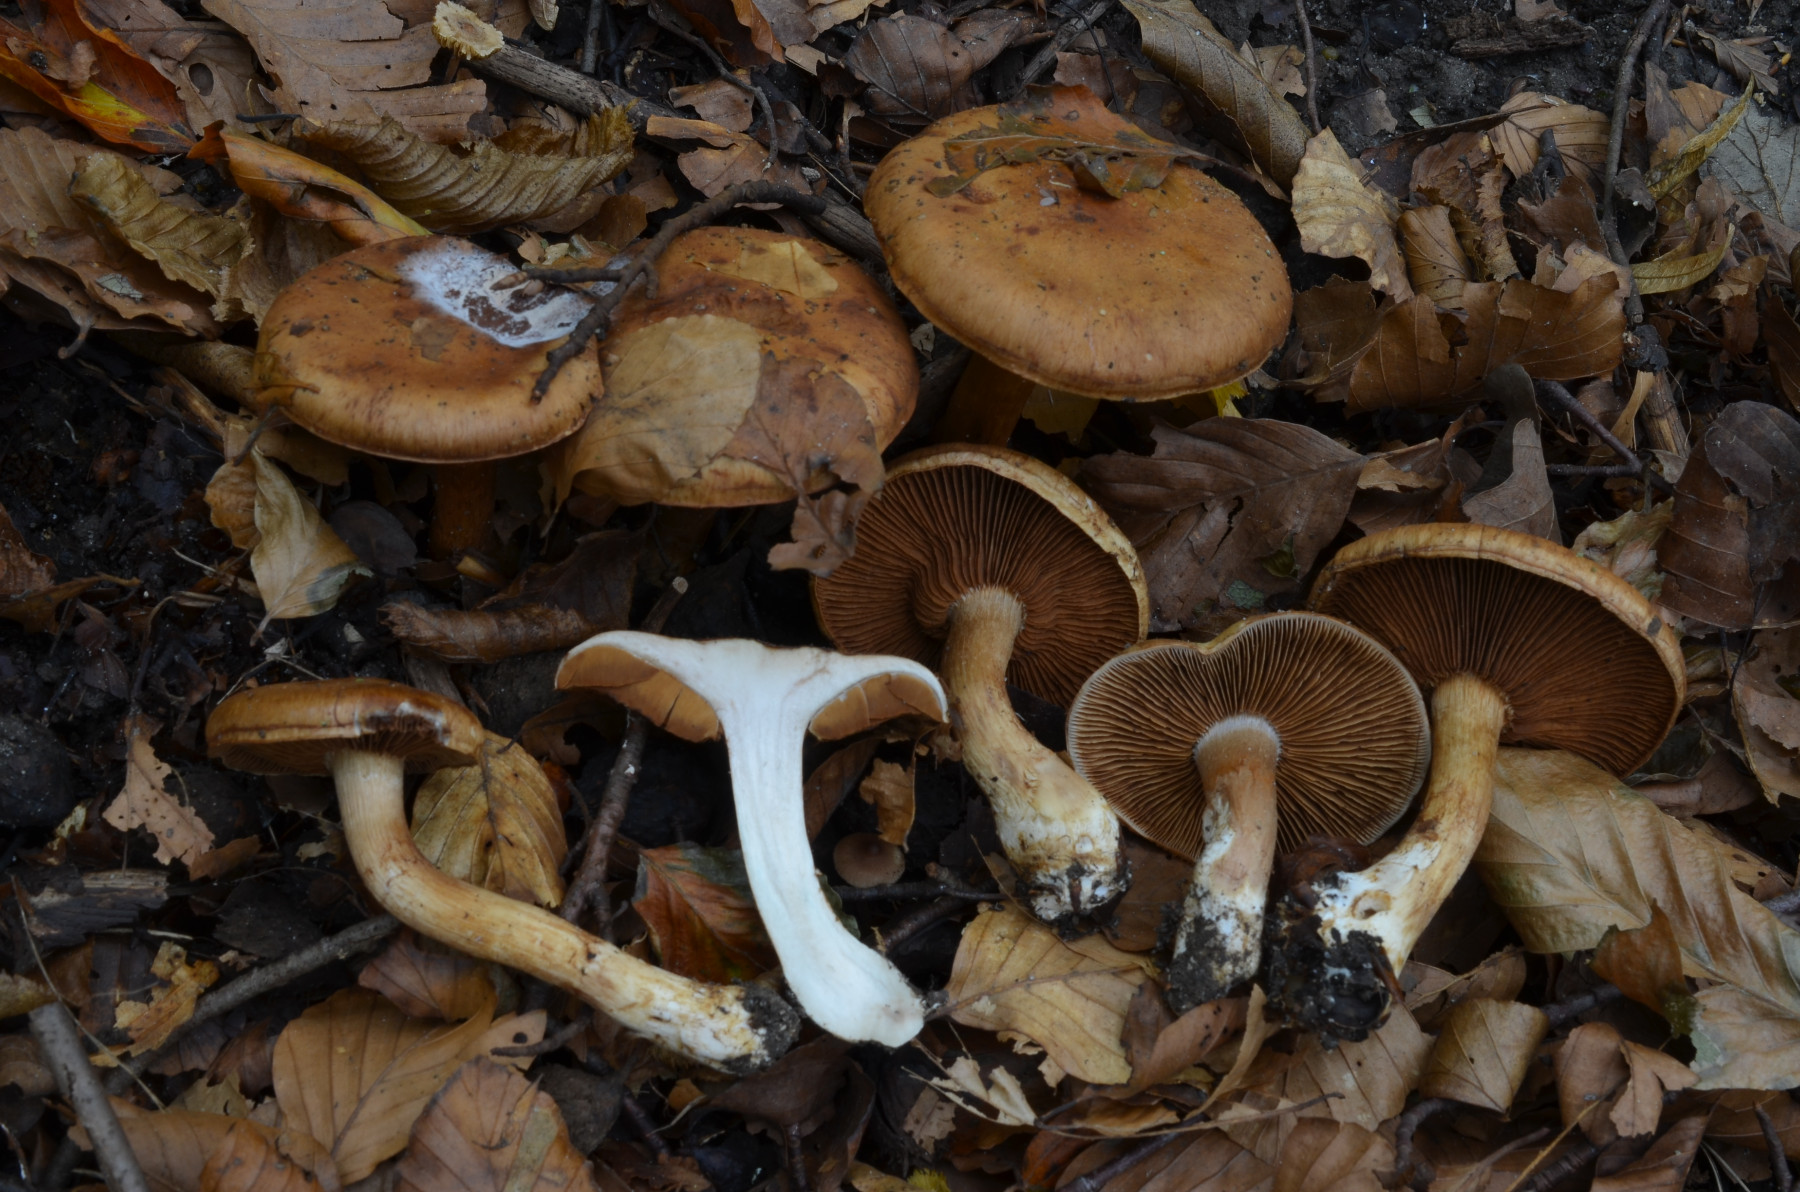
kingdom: Fungi
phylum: Basidiomycota
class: Agaricomycetes
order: Agaricales
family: Cortinariaceae
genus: Cortinarius
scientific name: Cortinarius
